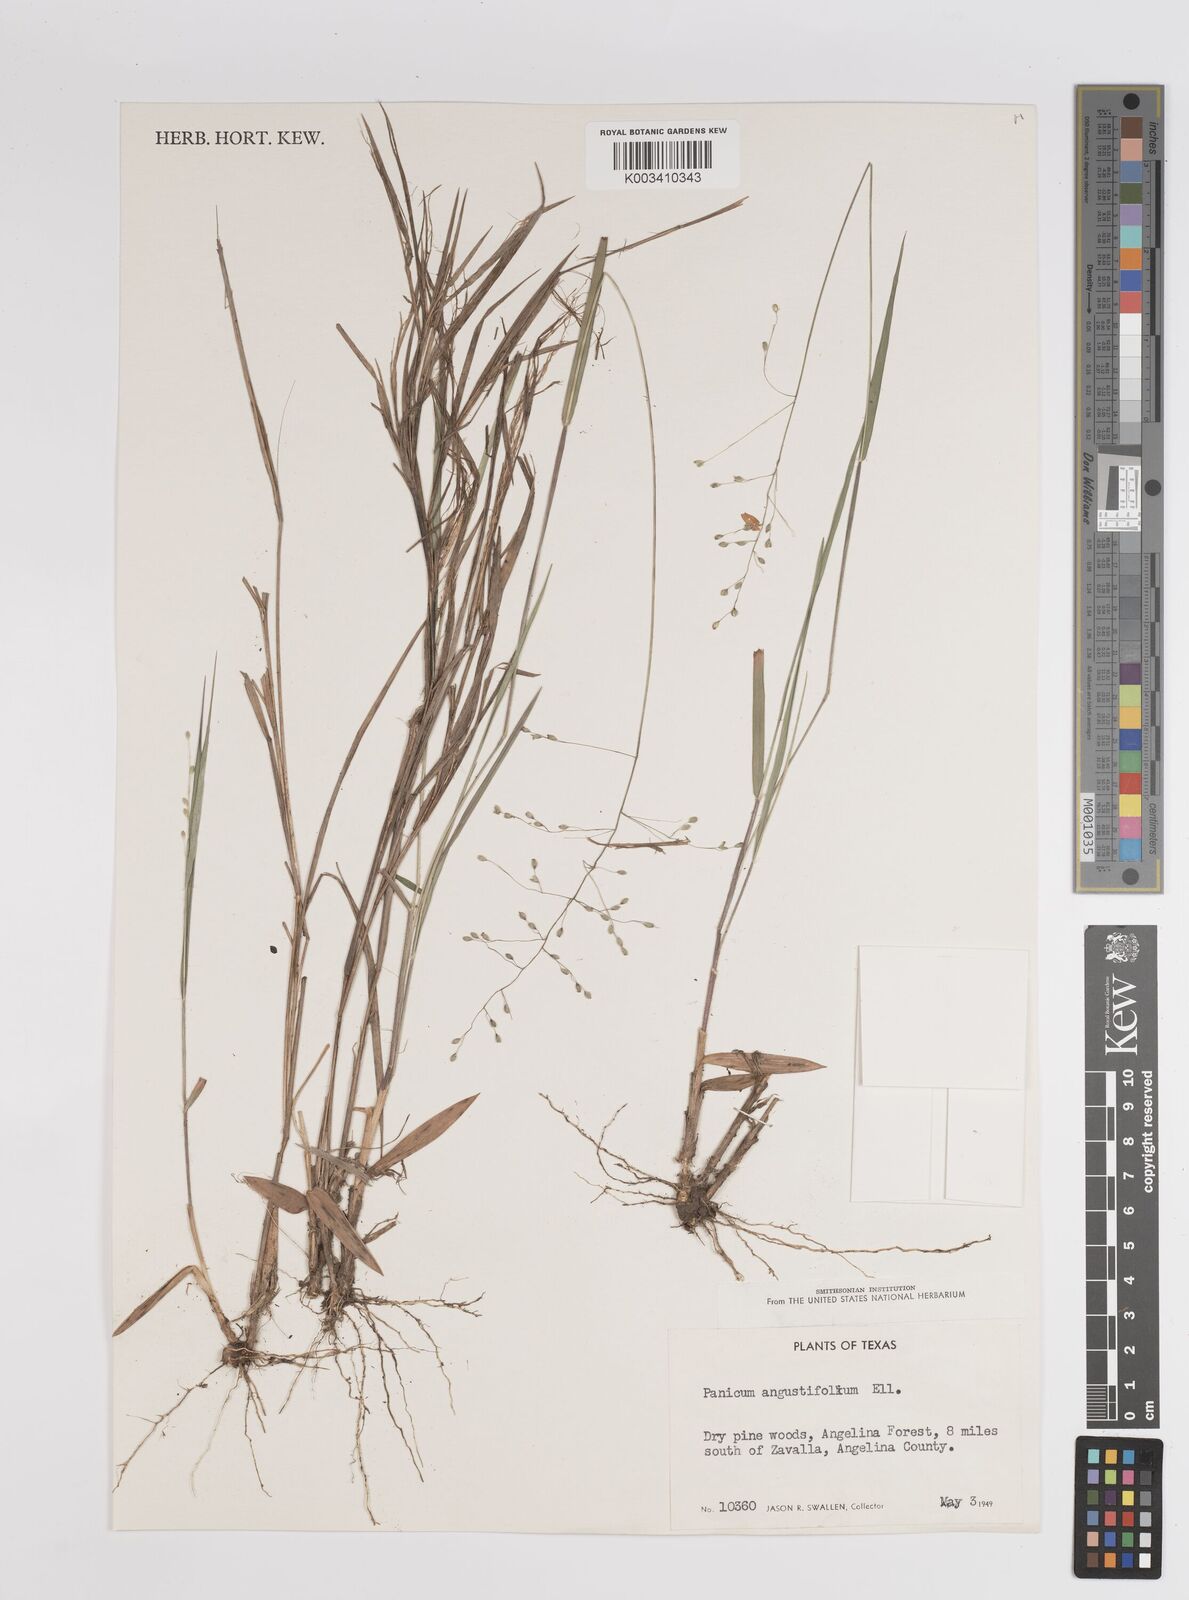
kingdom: Plantae
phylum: Tracheophyta
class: Liliopsida
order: Poales
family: Poaceae
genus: Dichanthelium
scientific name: Dichanthelium angustifolium
